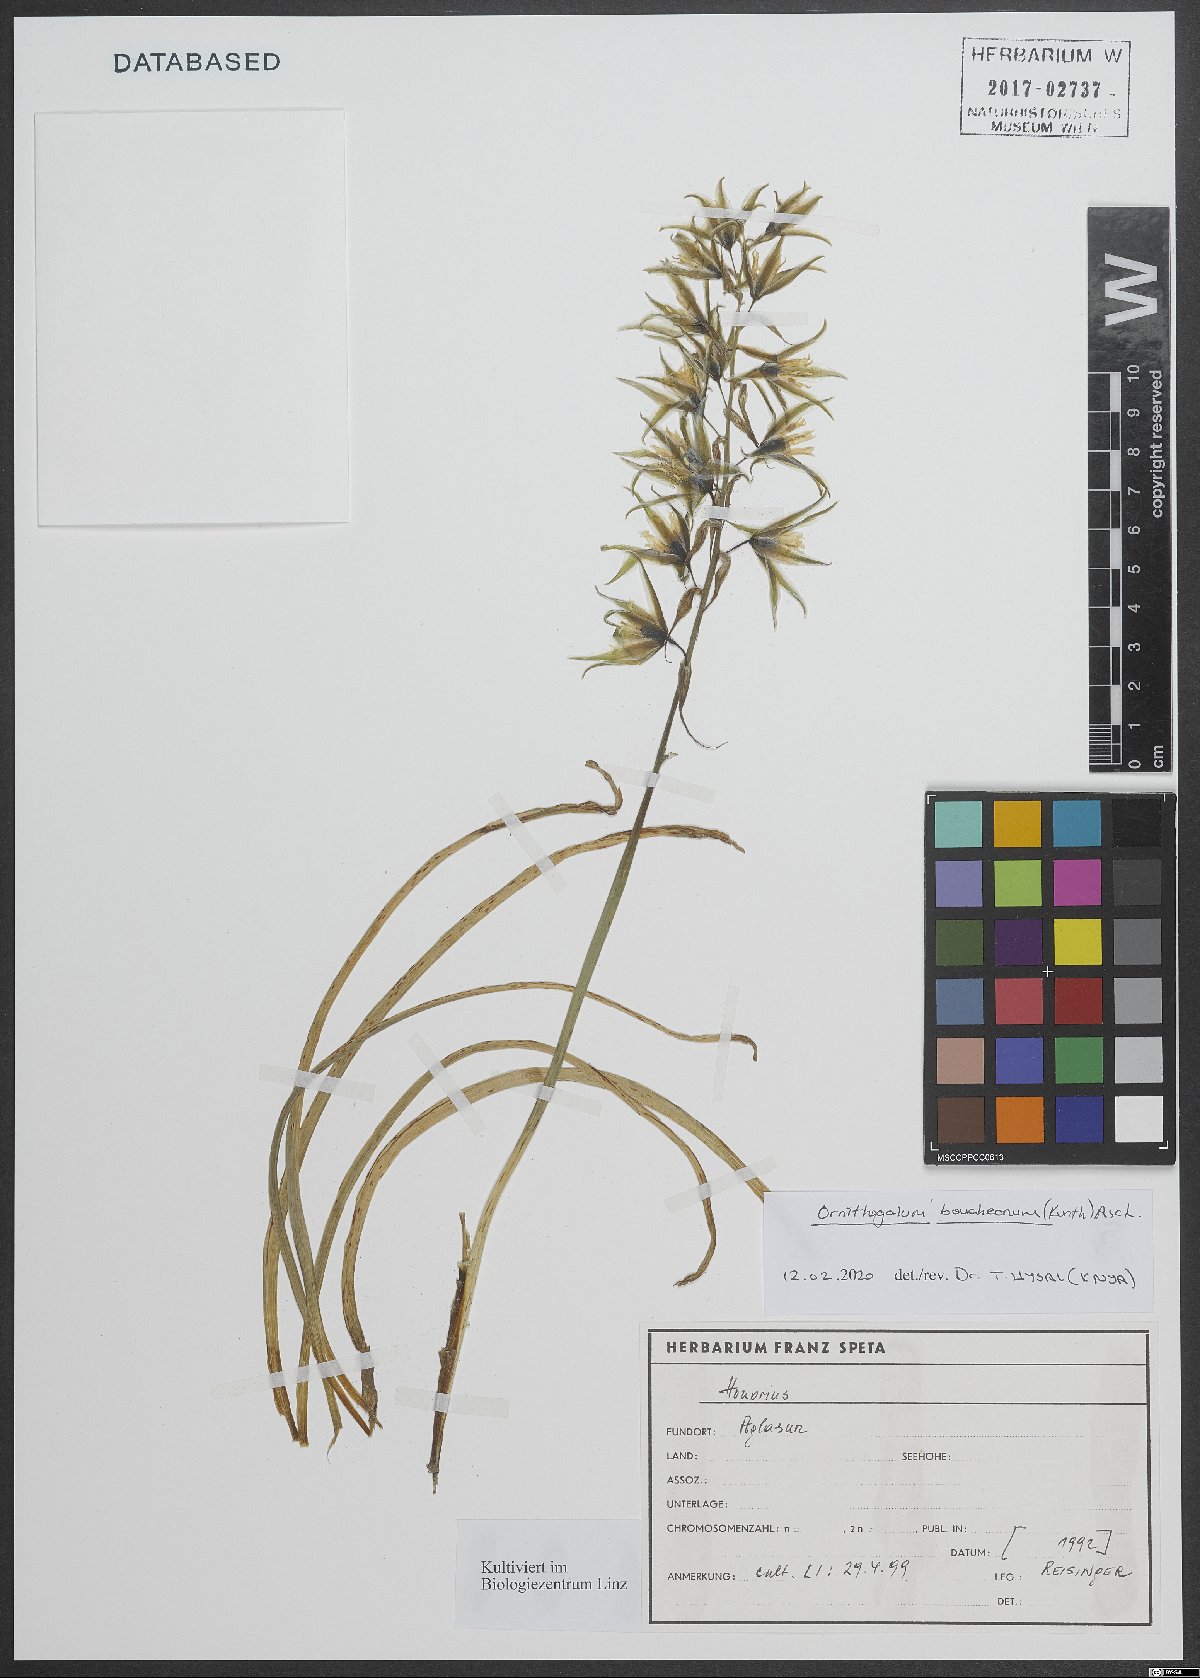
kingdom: Plantae
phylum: Tracheophyta
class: Liliopsida
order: Asparagales
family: Asparagaceae
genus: Ornithogalum
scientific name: Ornithogalum boucheanum
